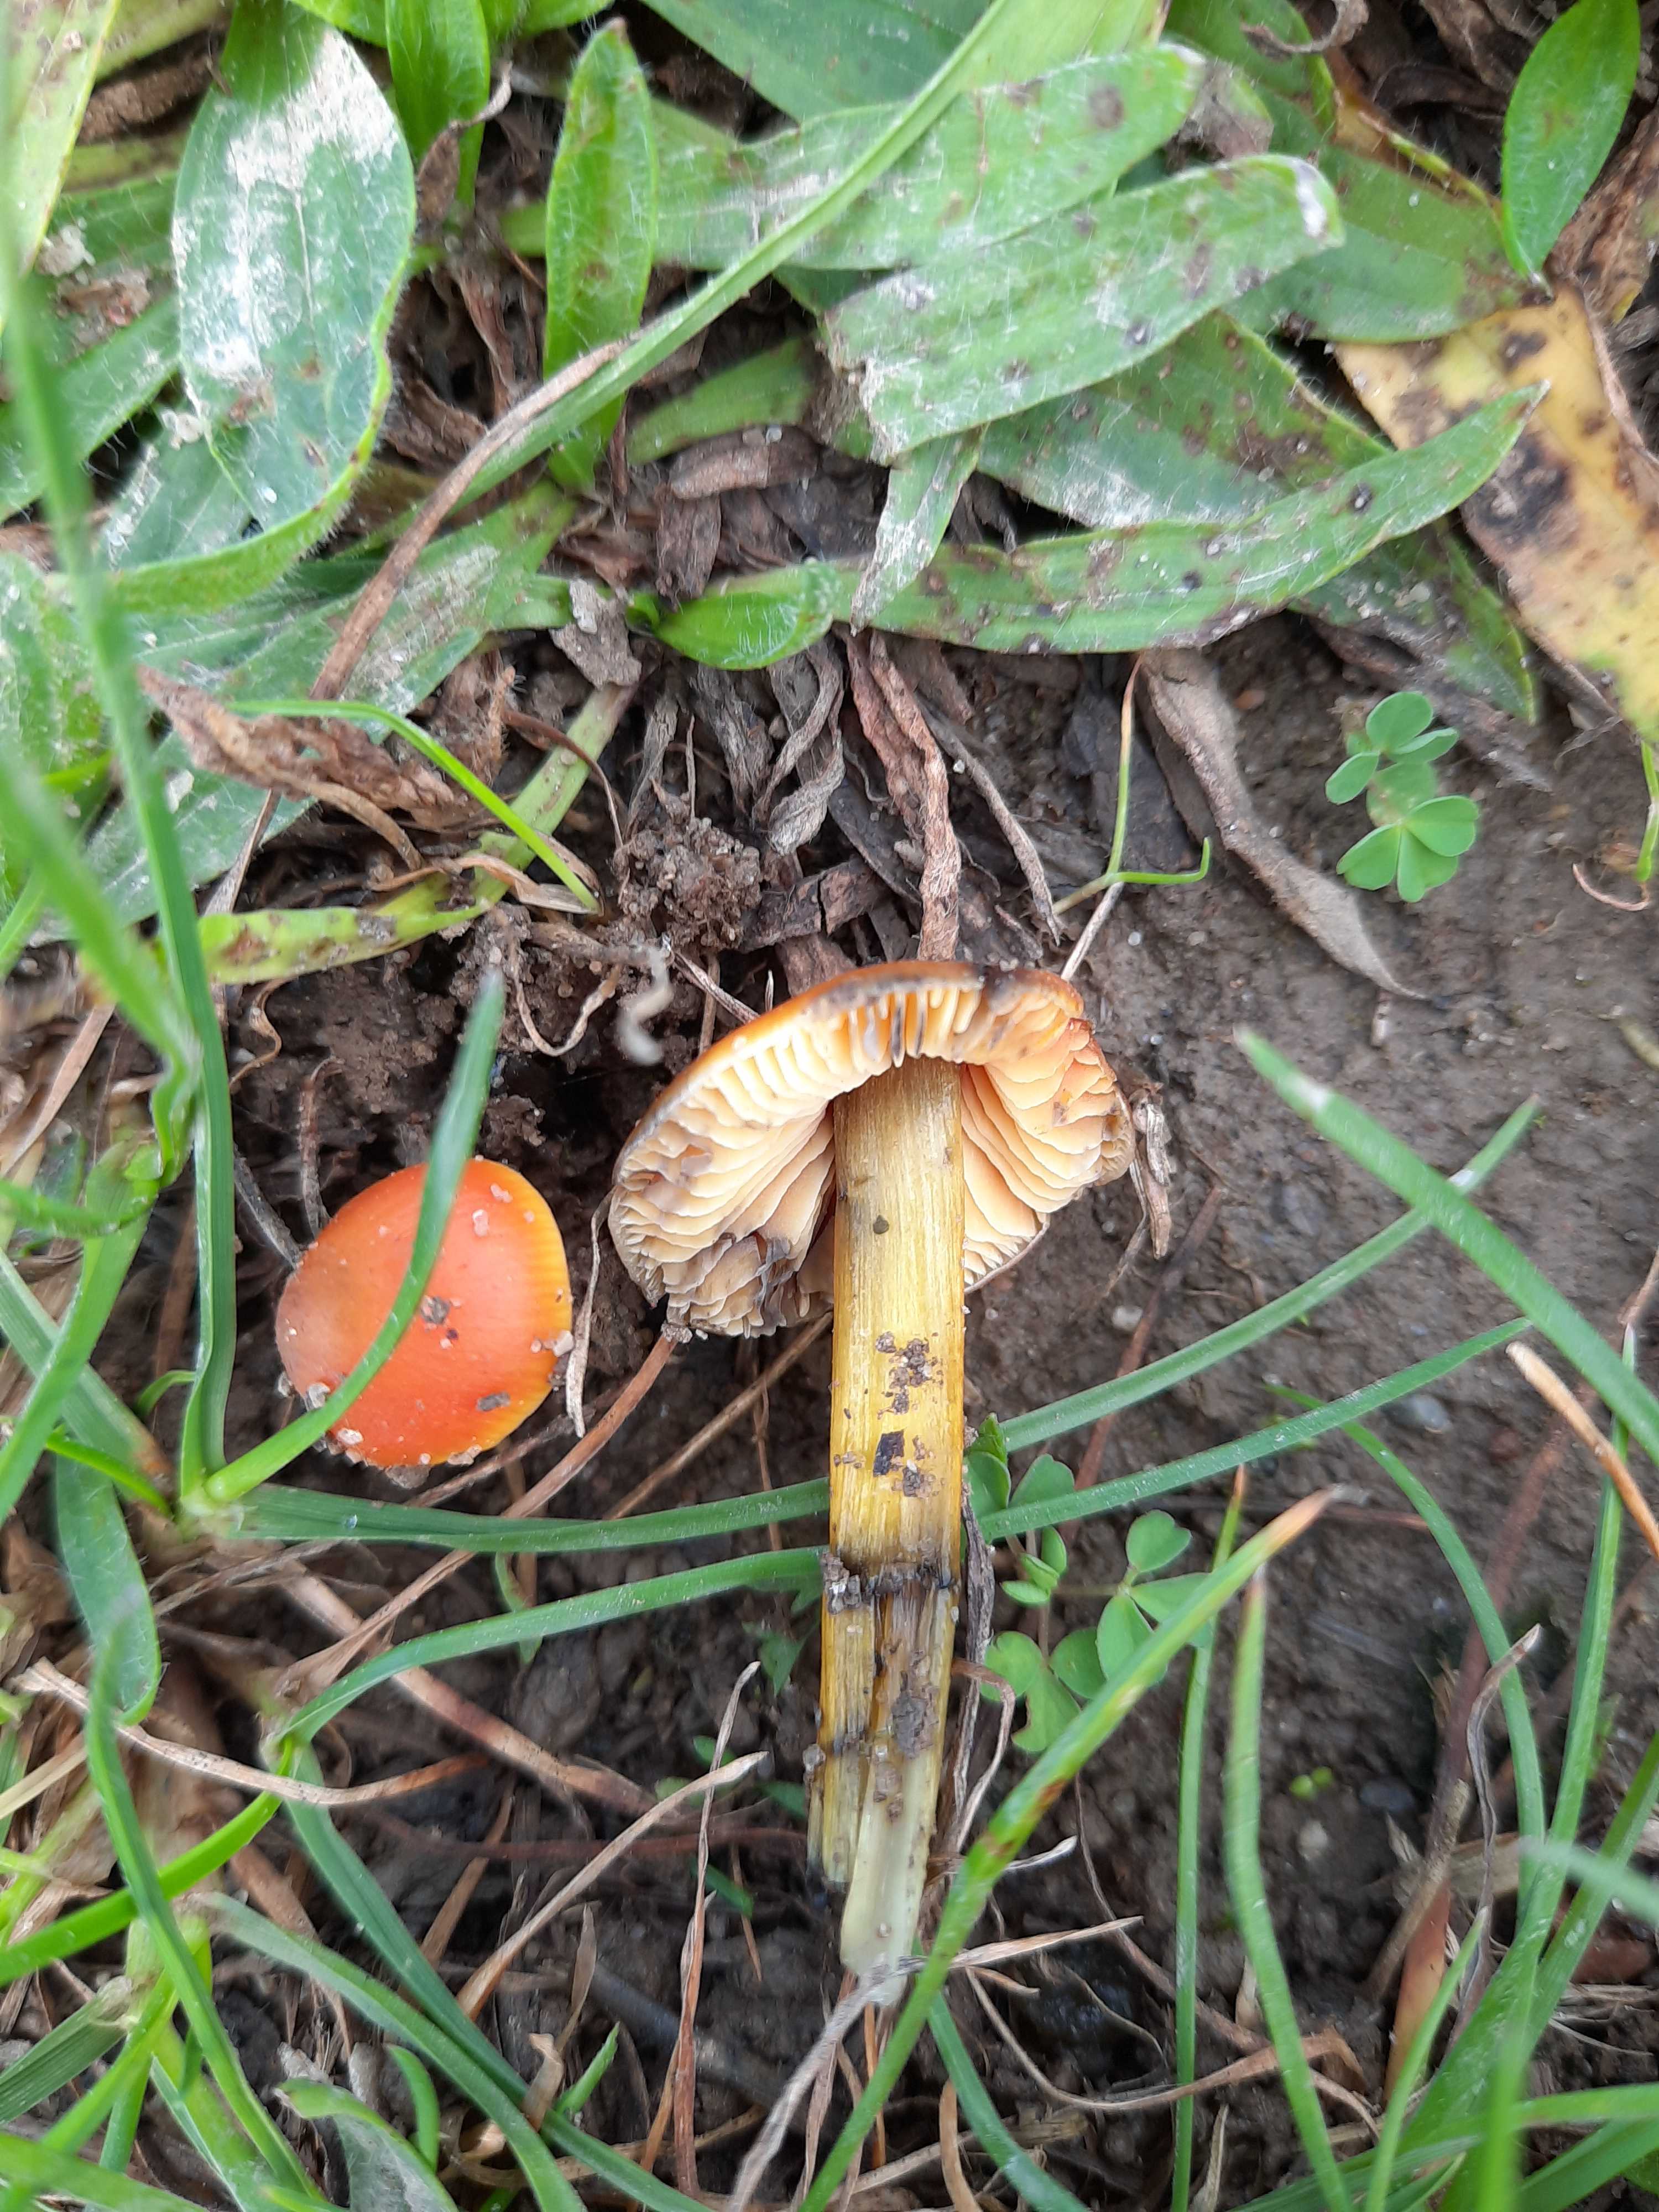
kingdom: Fungi
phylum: Basidiomycota
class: Agaricomycetes
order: Agaricales
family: Hygrophoraceae
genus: Hygrocybe
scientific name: Hygrocybe conica
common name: kegle-vokshat
